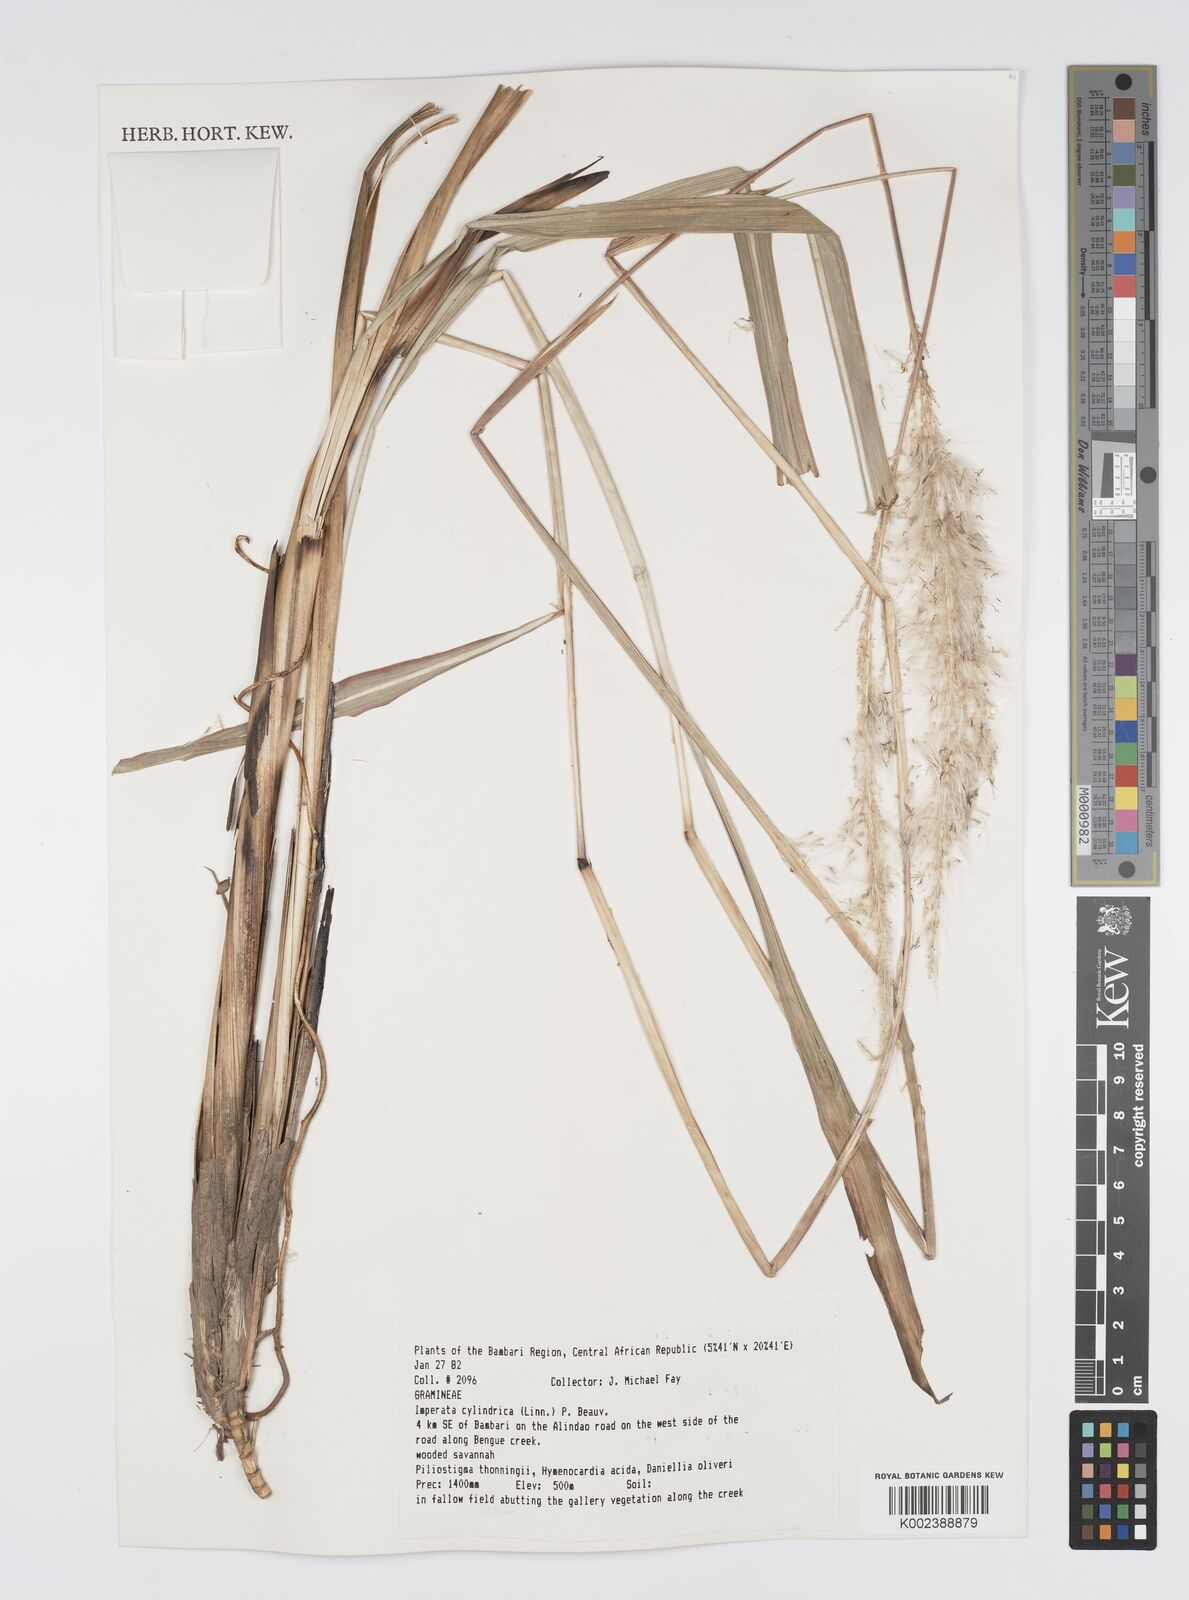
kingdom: Plantae
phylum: Tracheophyta
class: Liliopsida
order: Poales
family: Poaceae
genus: Imperata
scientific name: Imperata cylindrica
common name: Cogongrass
